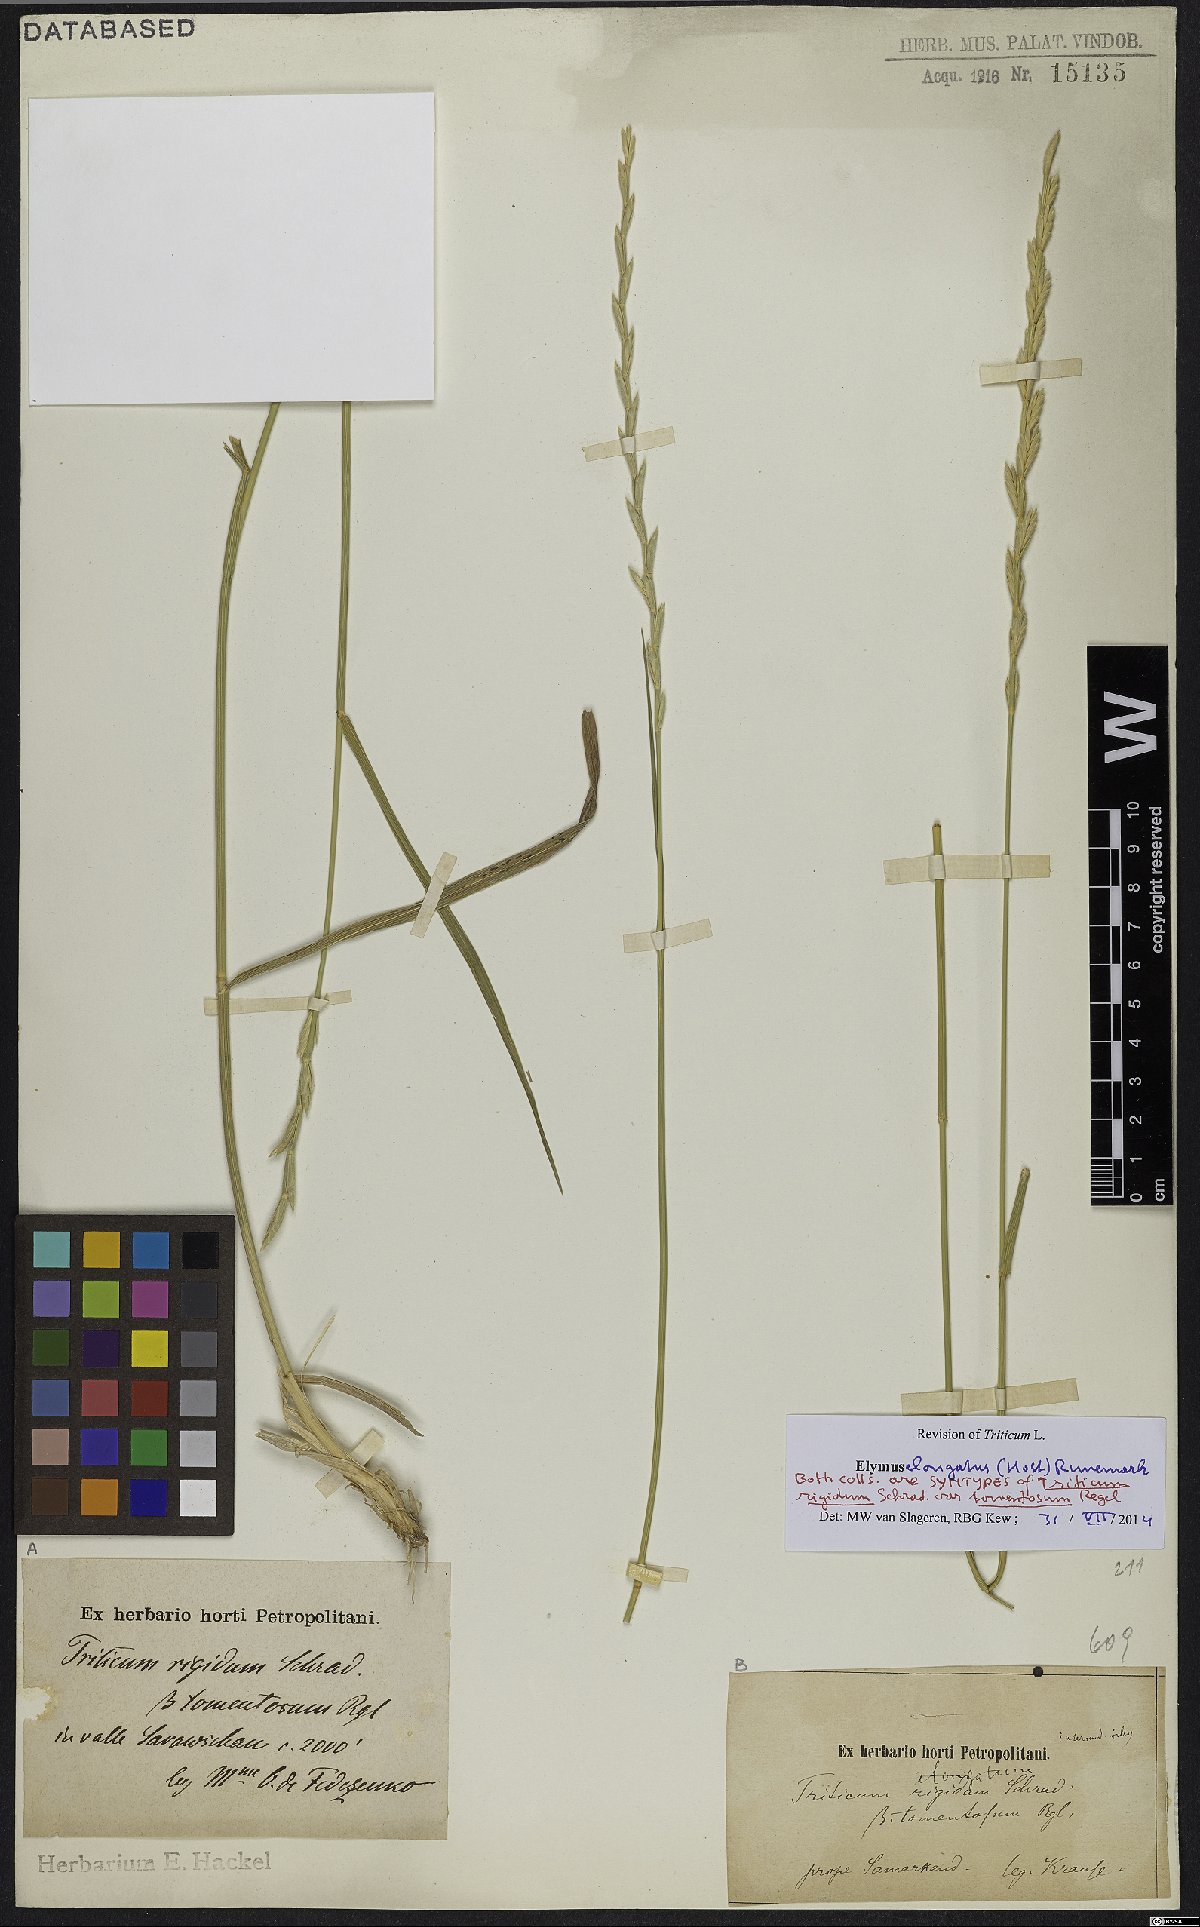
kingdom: Plantae
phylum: Tracheophyta
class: Liliopsida
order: Poales
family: Poaceae
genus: Thinopyrum
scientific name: Thinopyrum elongatum
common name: Tall wheatgrass
